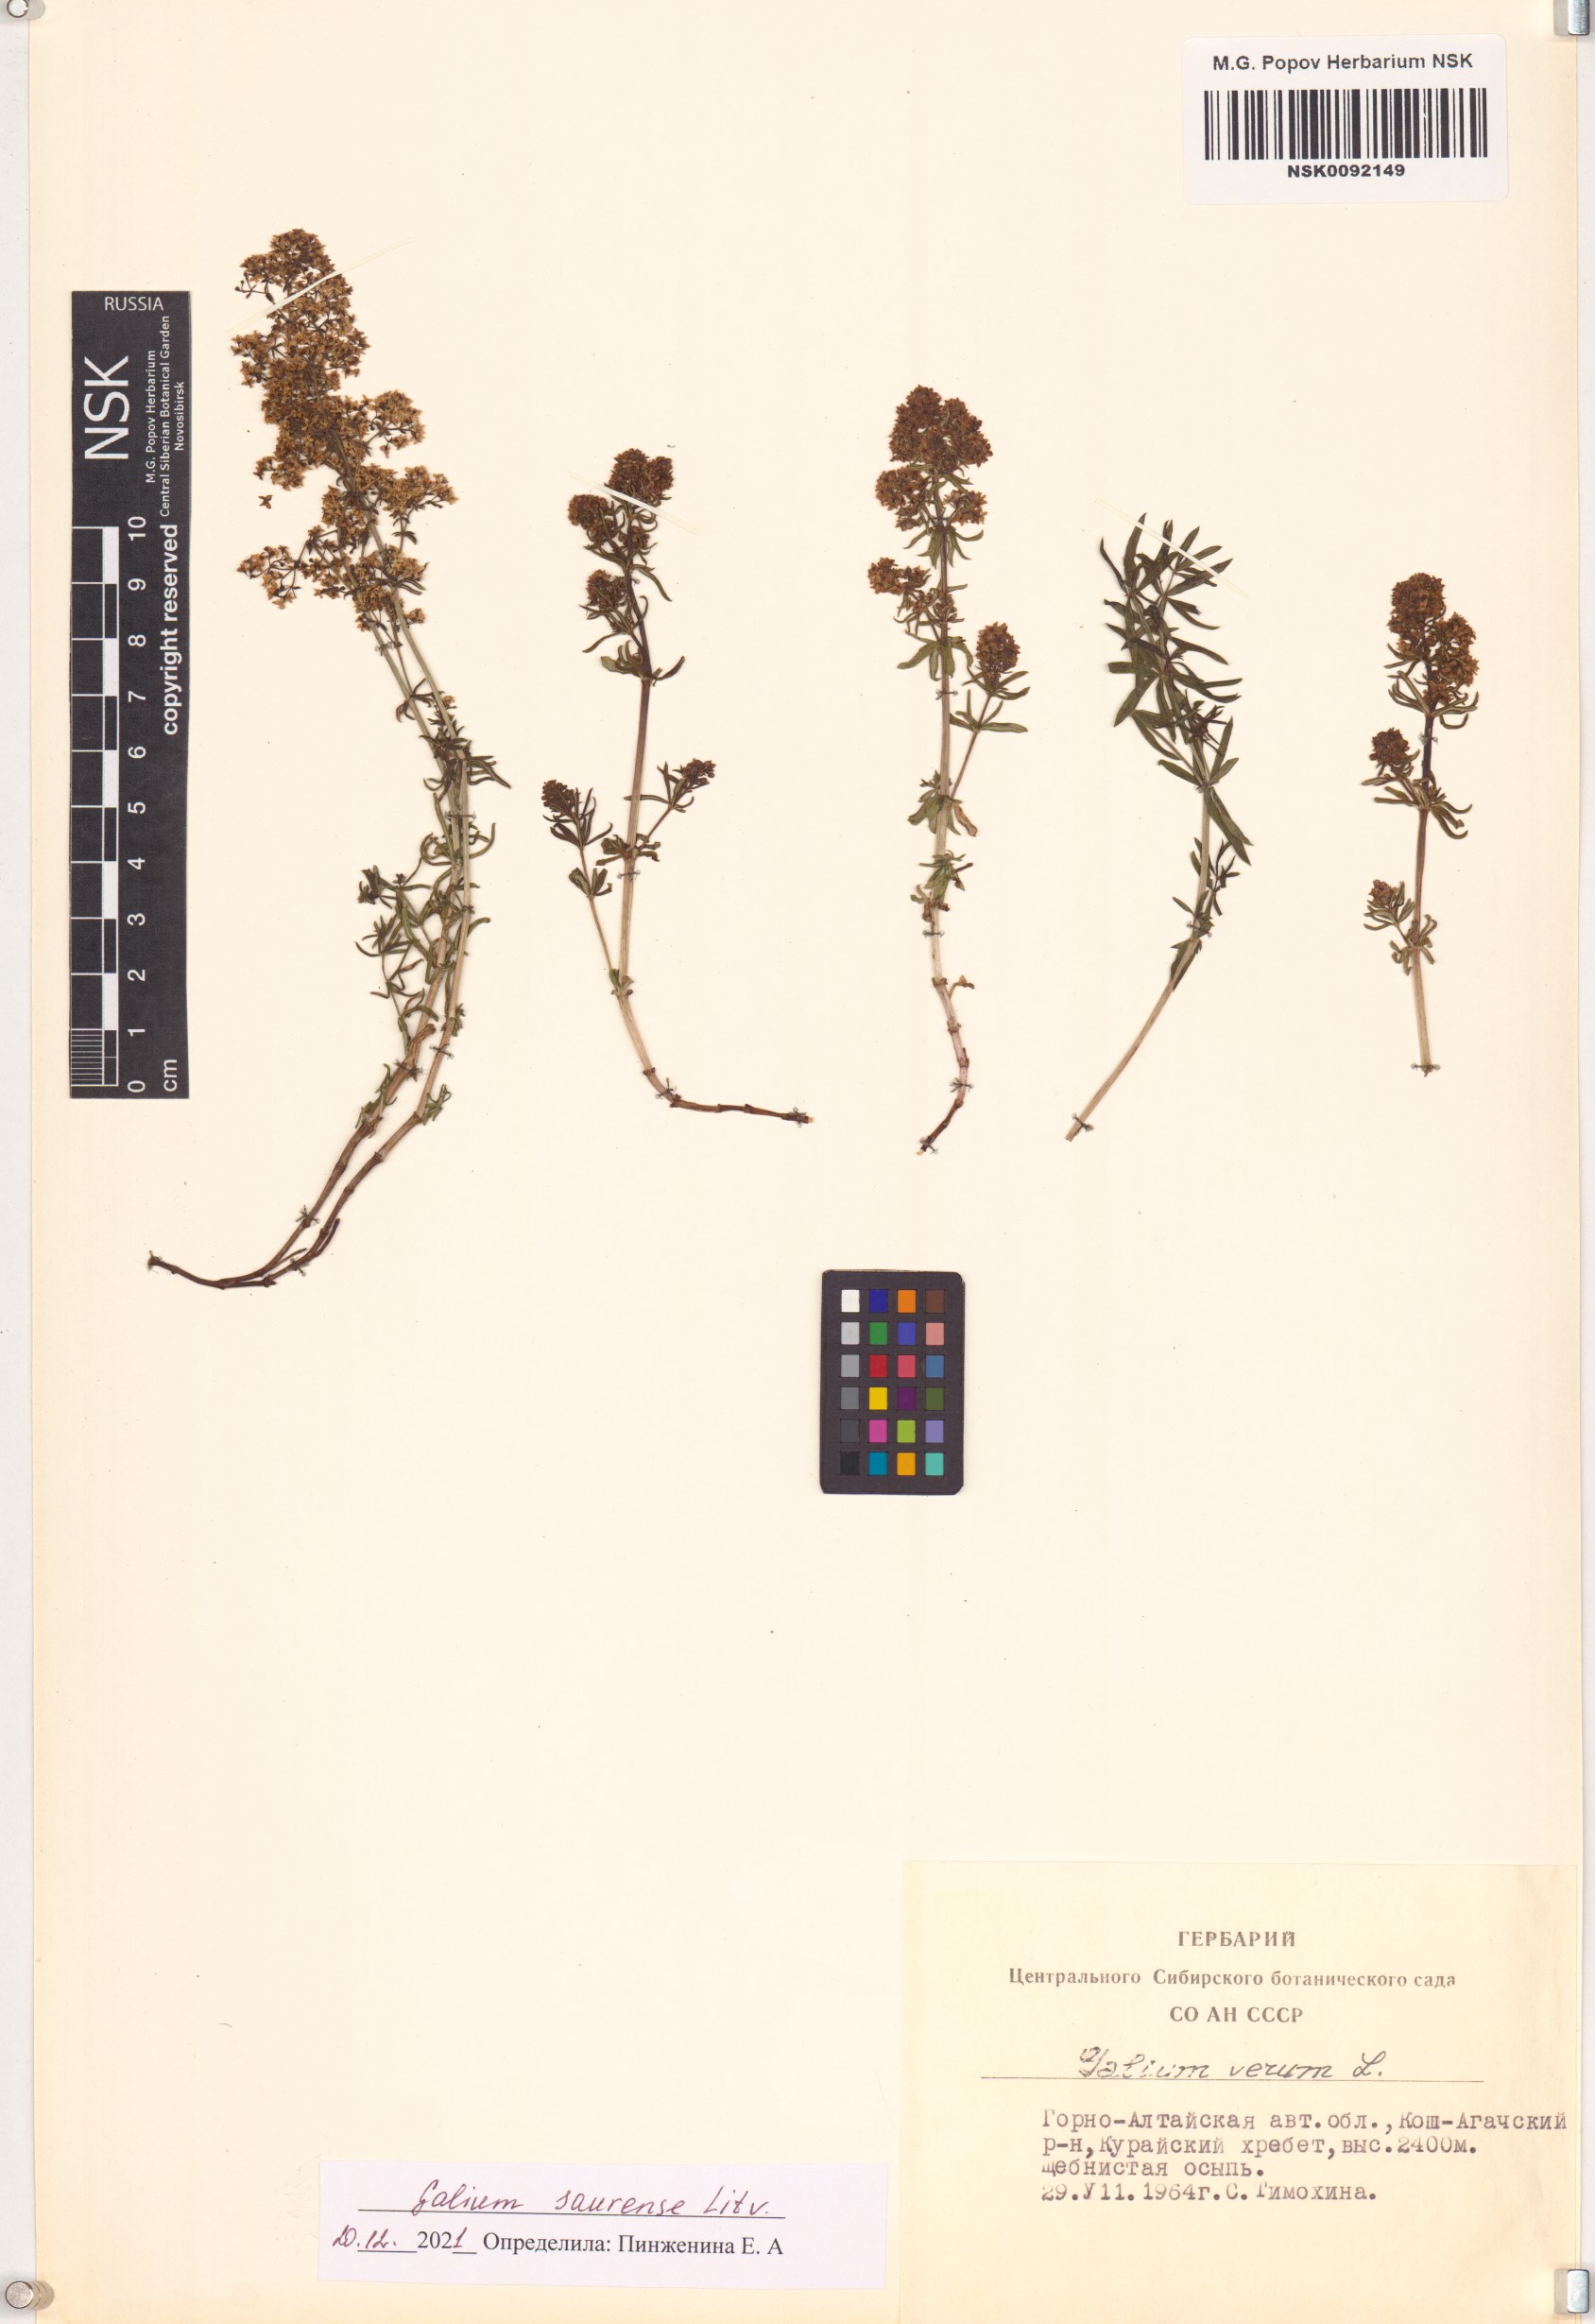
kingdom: Plantae
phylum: Tracheophyta
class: Magnoliopsida
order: Gentianales
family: Rubiaceae
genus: Galium
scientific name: Galium saurense
